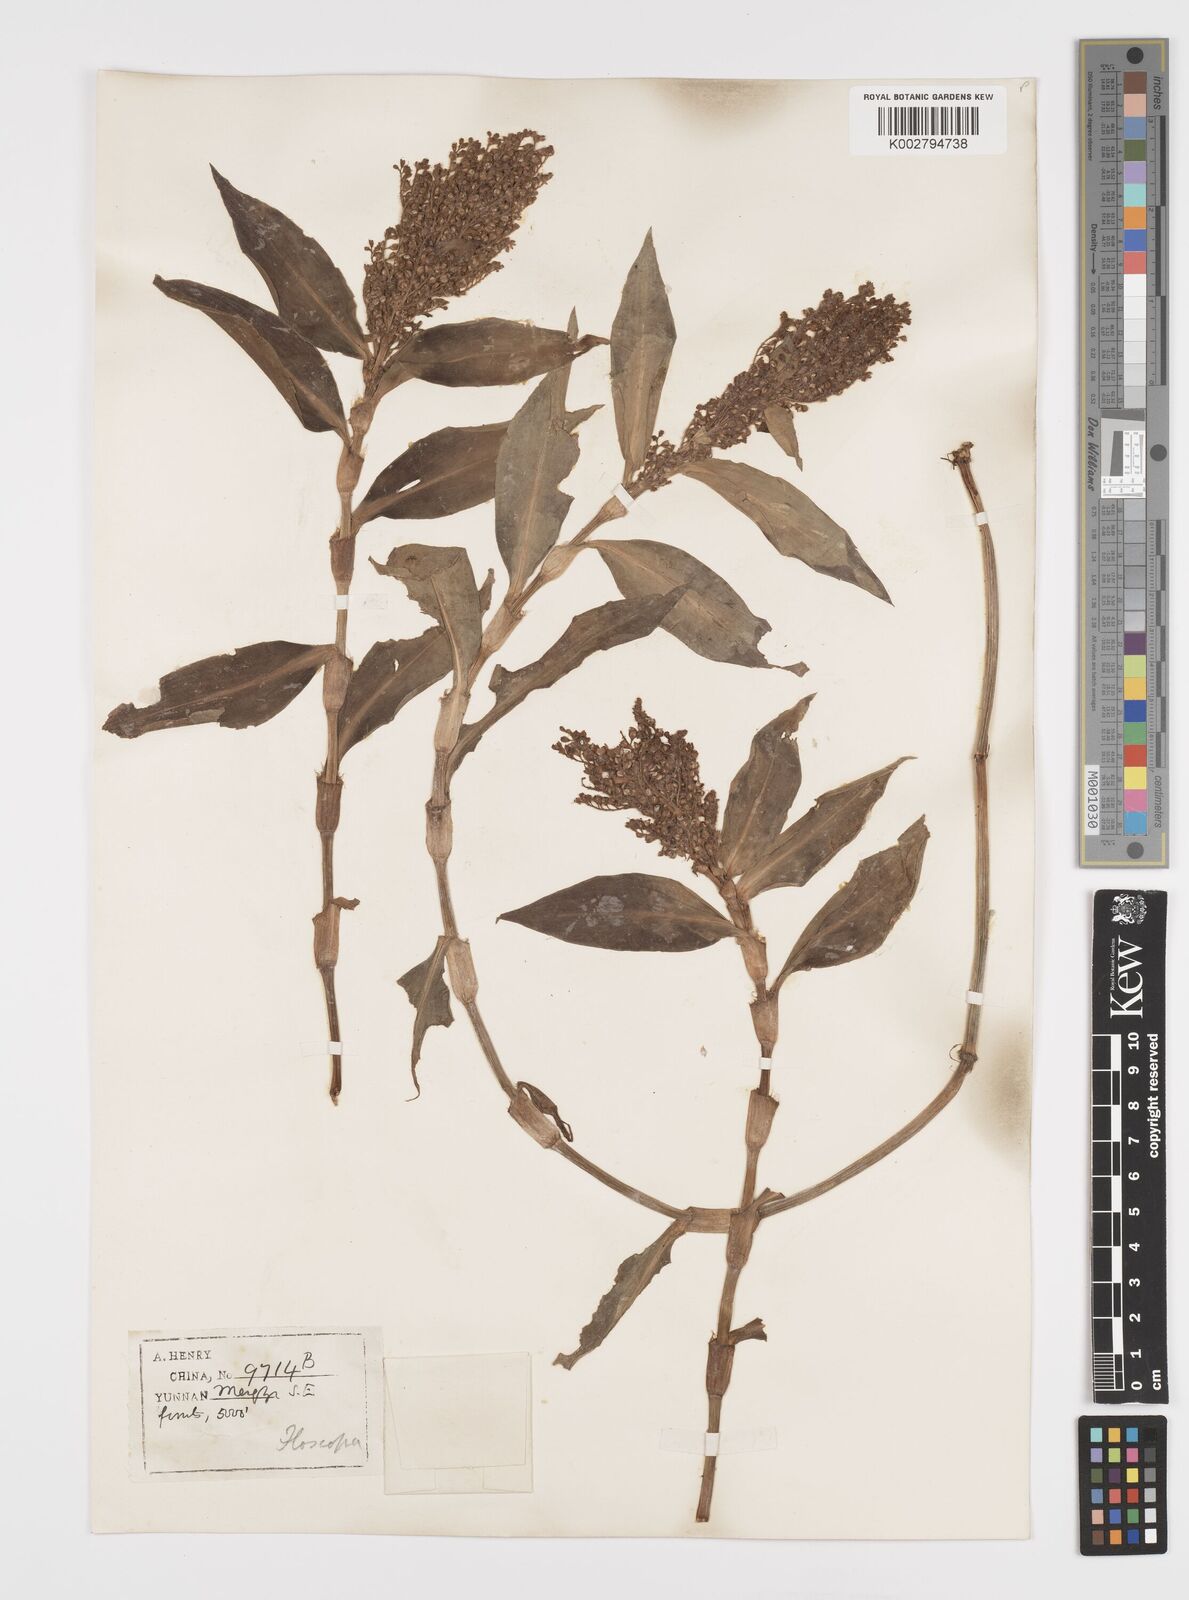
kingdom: Plantae
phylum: Tracheophyta
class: Liliopsida
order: Commelinales
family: Commelinaceae
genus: Floscopa
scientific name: Floscopa scandens
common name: Climbing flower cup
